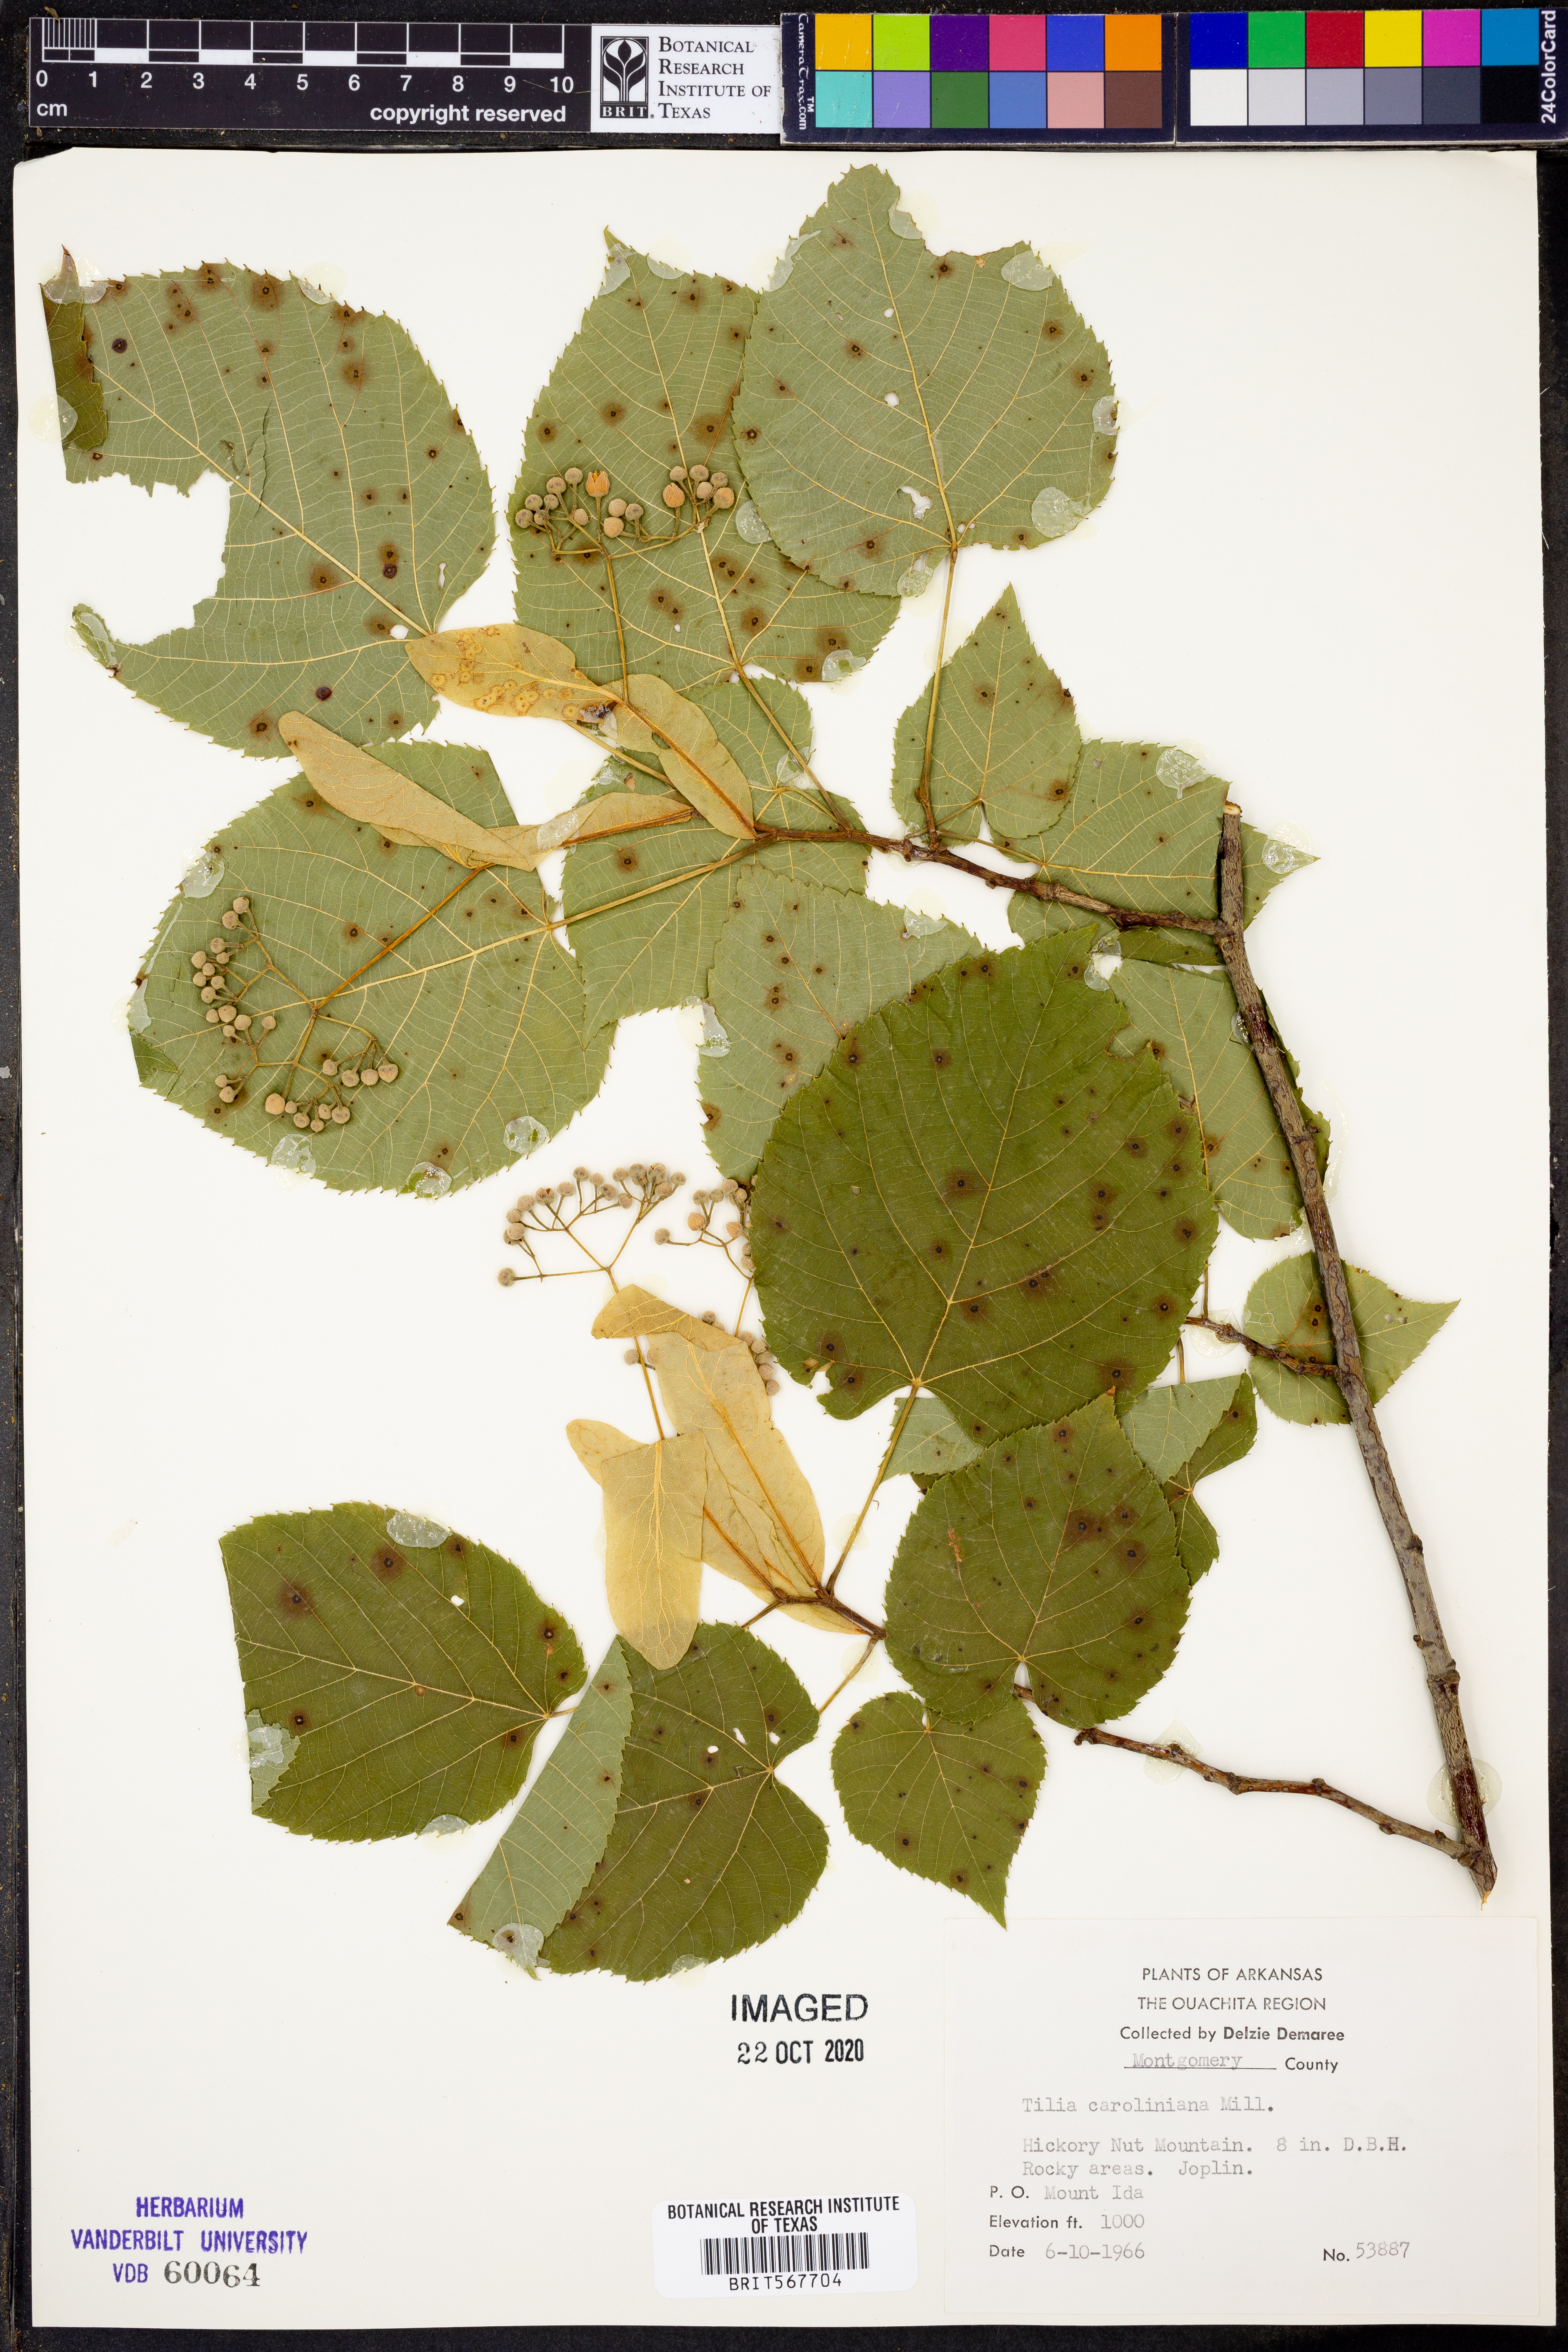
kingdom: Plantae
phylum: Tracheophyta
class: Magnoliopsida
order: Malvales
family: Malvaceae
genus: Tilia
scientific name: Tilia americana
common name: Basswood
